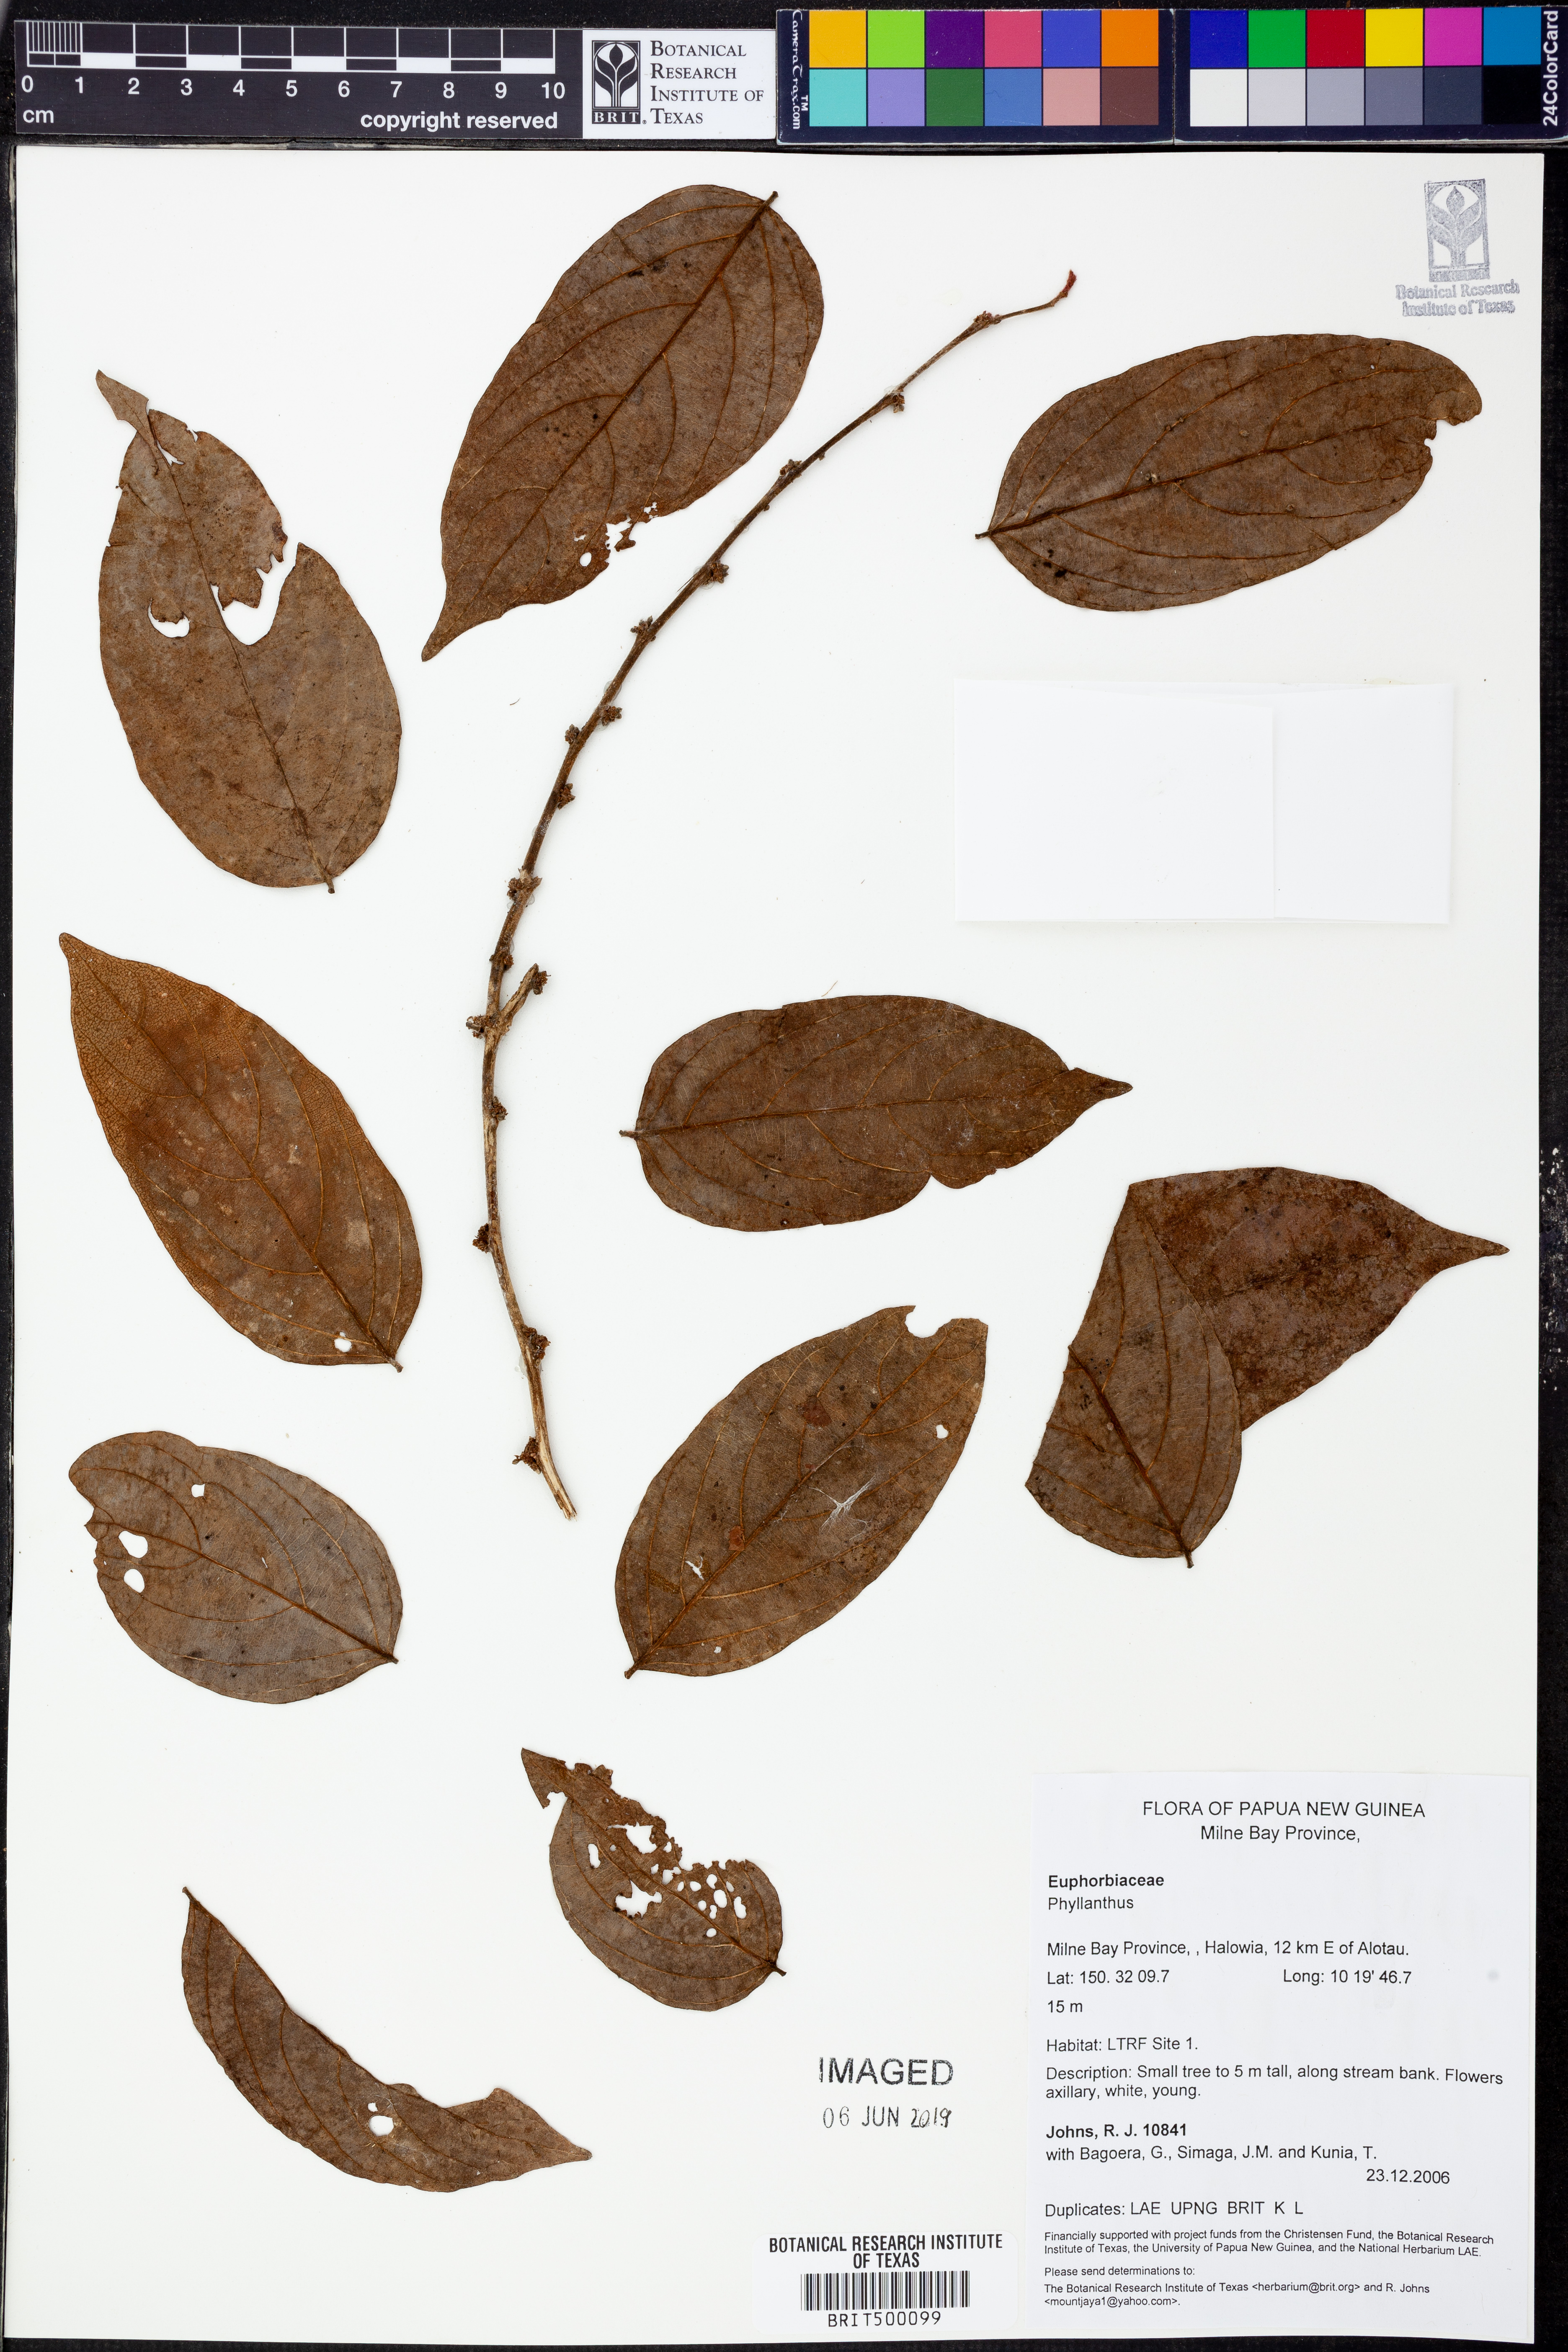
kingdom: Plantae
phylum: Tracheophyta
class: Magnoliopsida
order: Malpighiales
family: Phyllanthaceae
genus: Phyllanthus
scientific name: Phyllanthus
